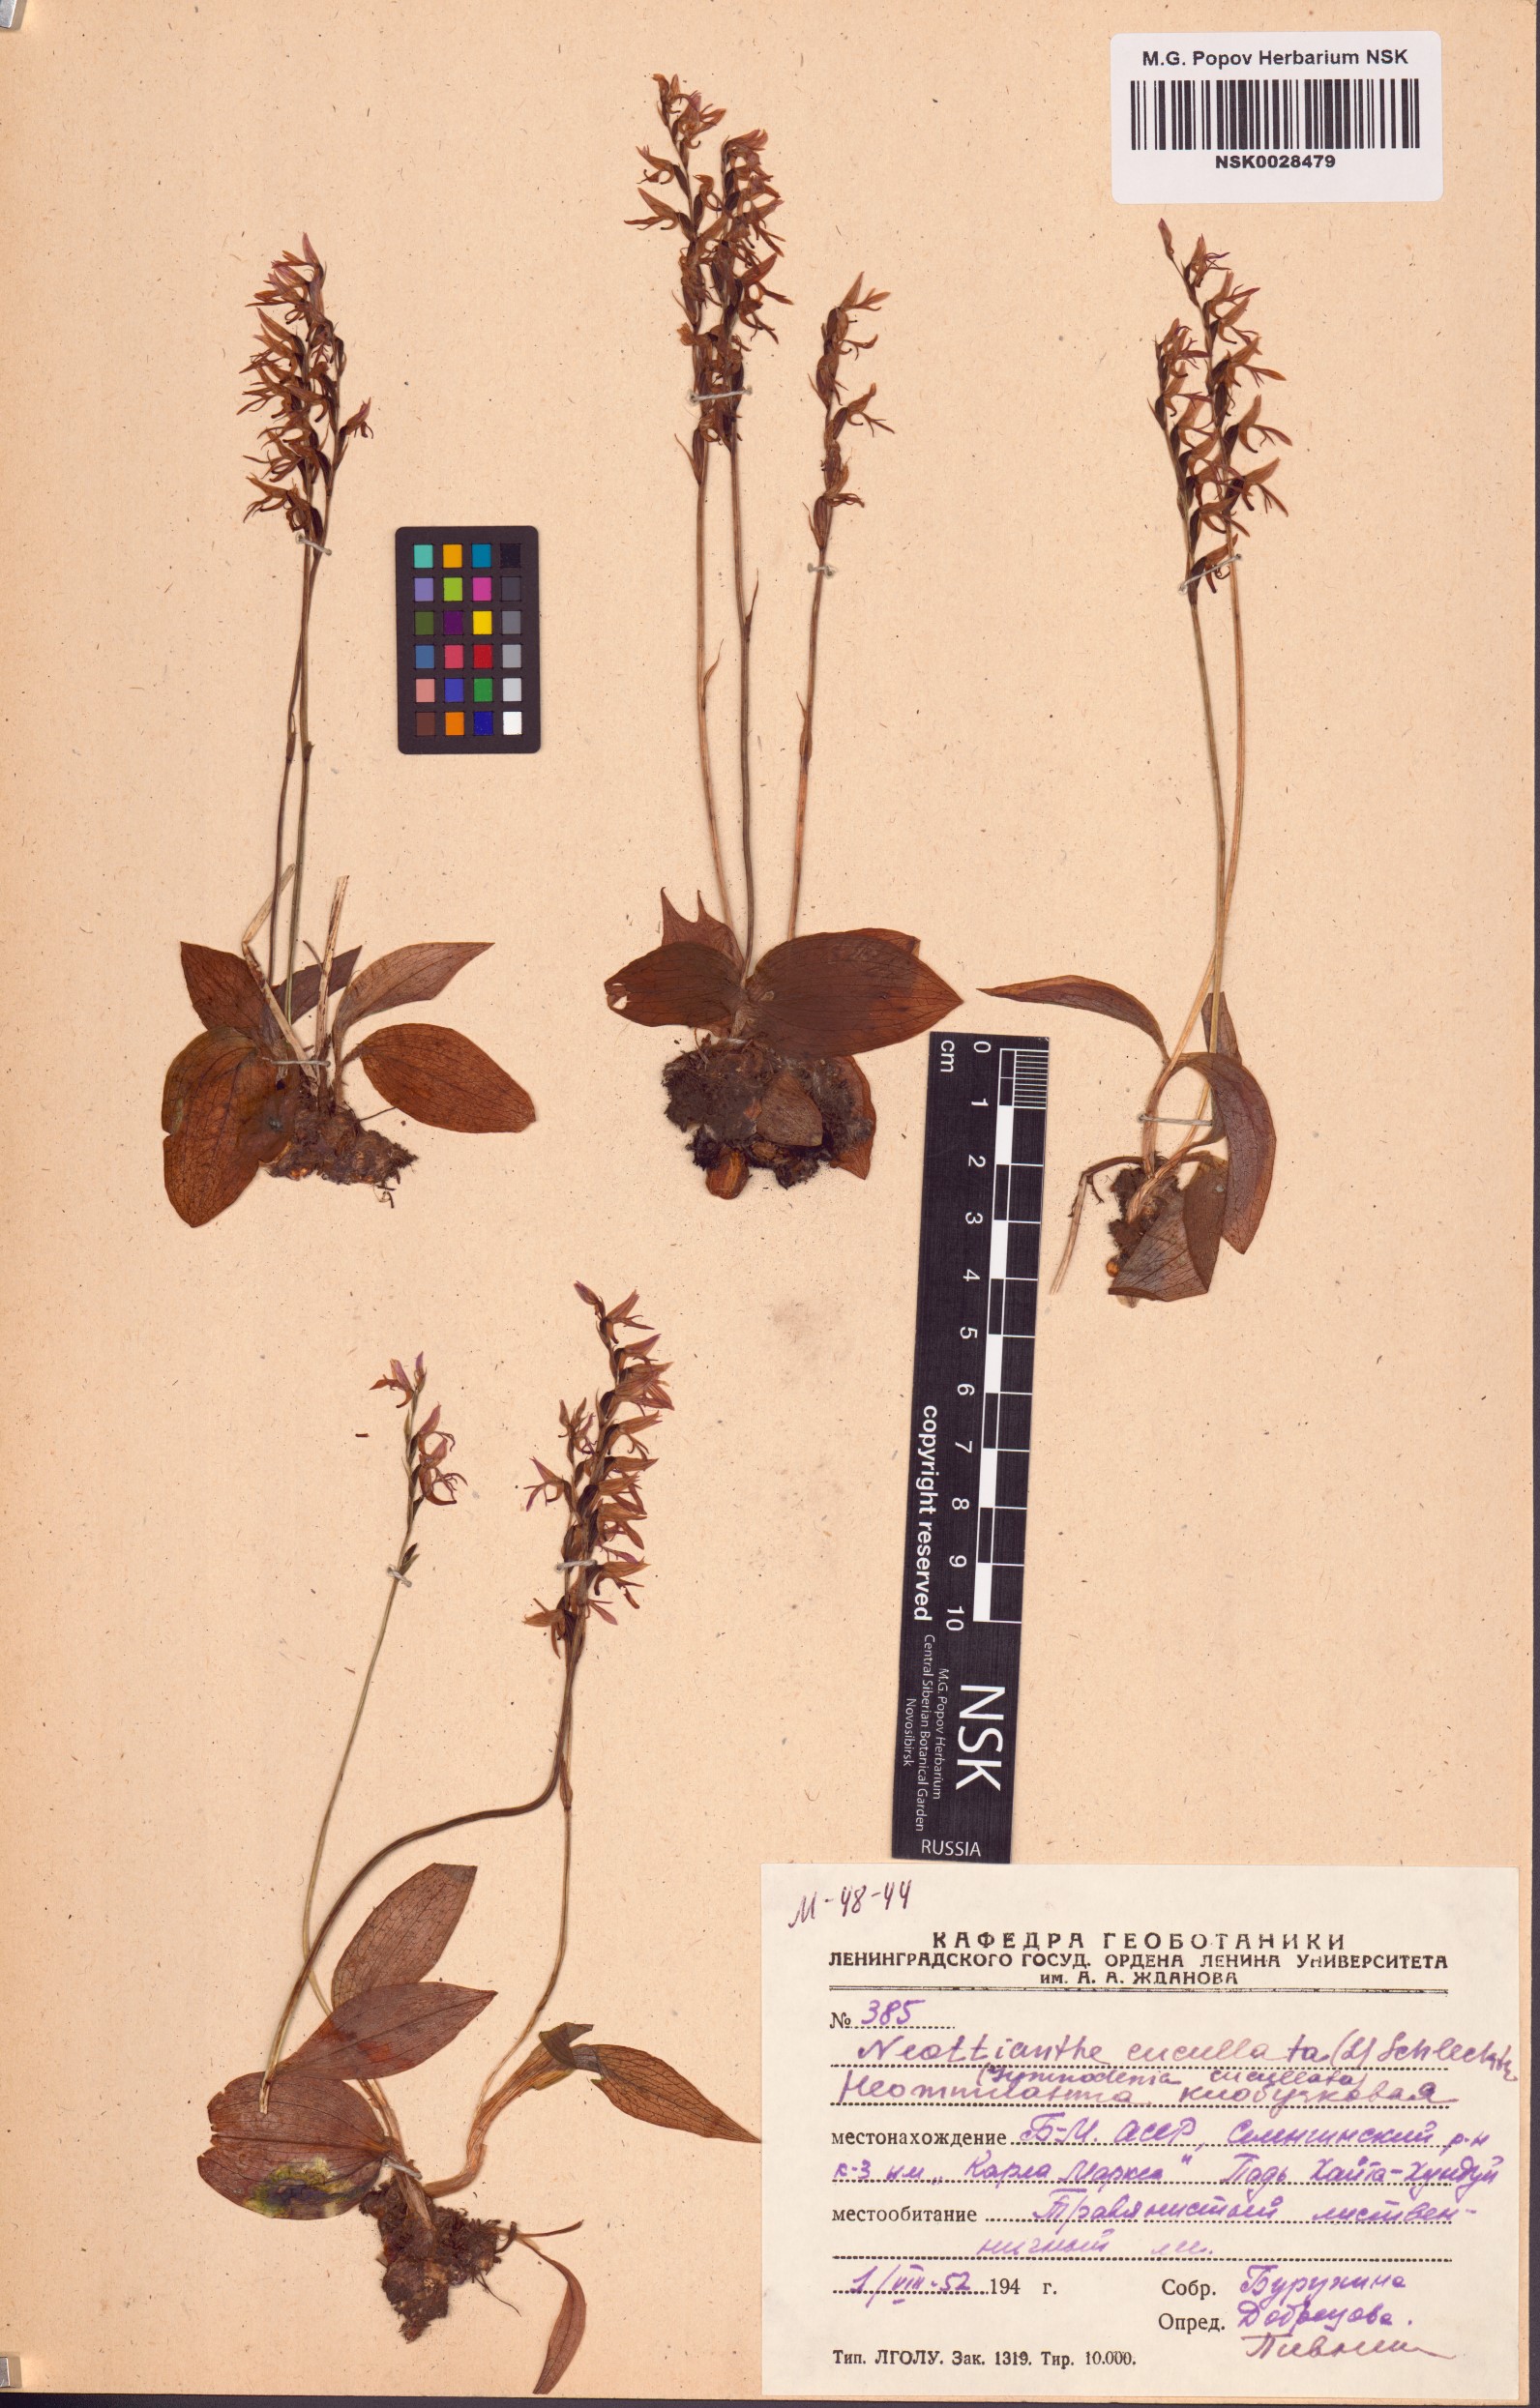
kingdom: Plantae
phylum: Tracheophyta
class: Liliopsida
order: Asparagales
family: Orchidaceae
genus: Hemipilia
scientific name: Hemipilia cucullata
